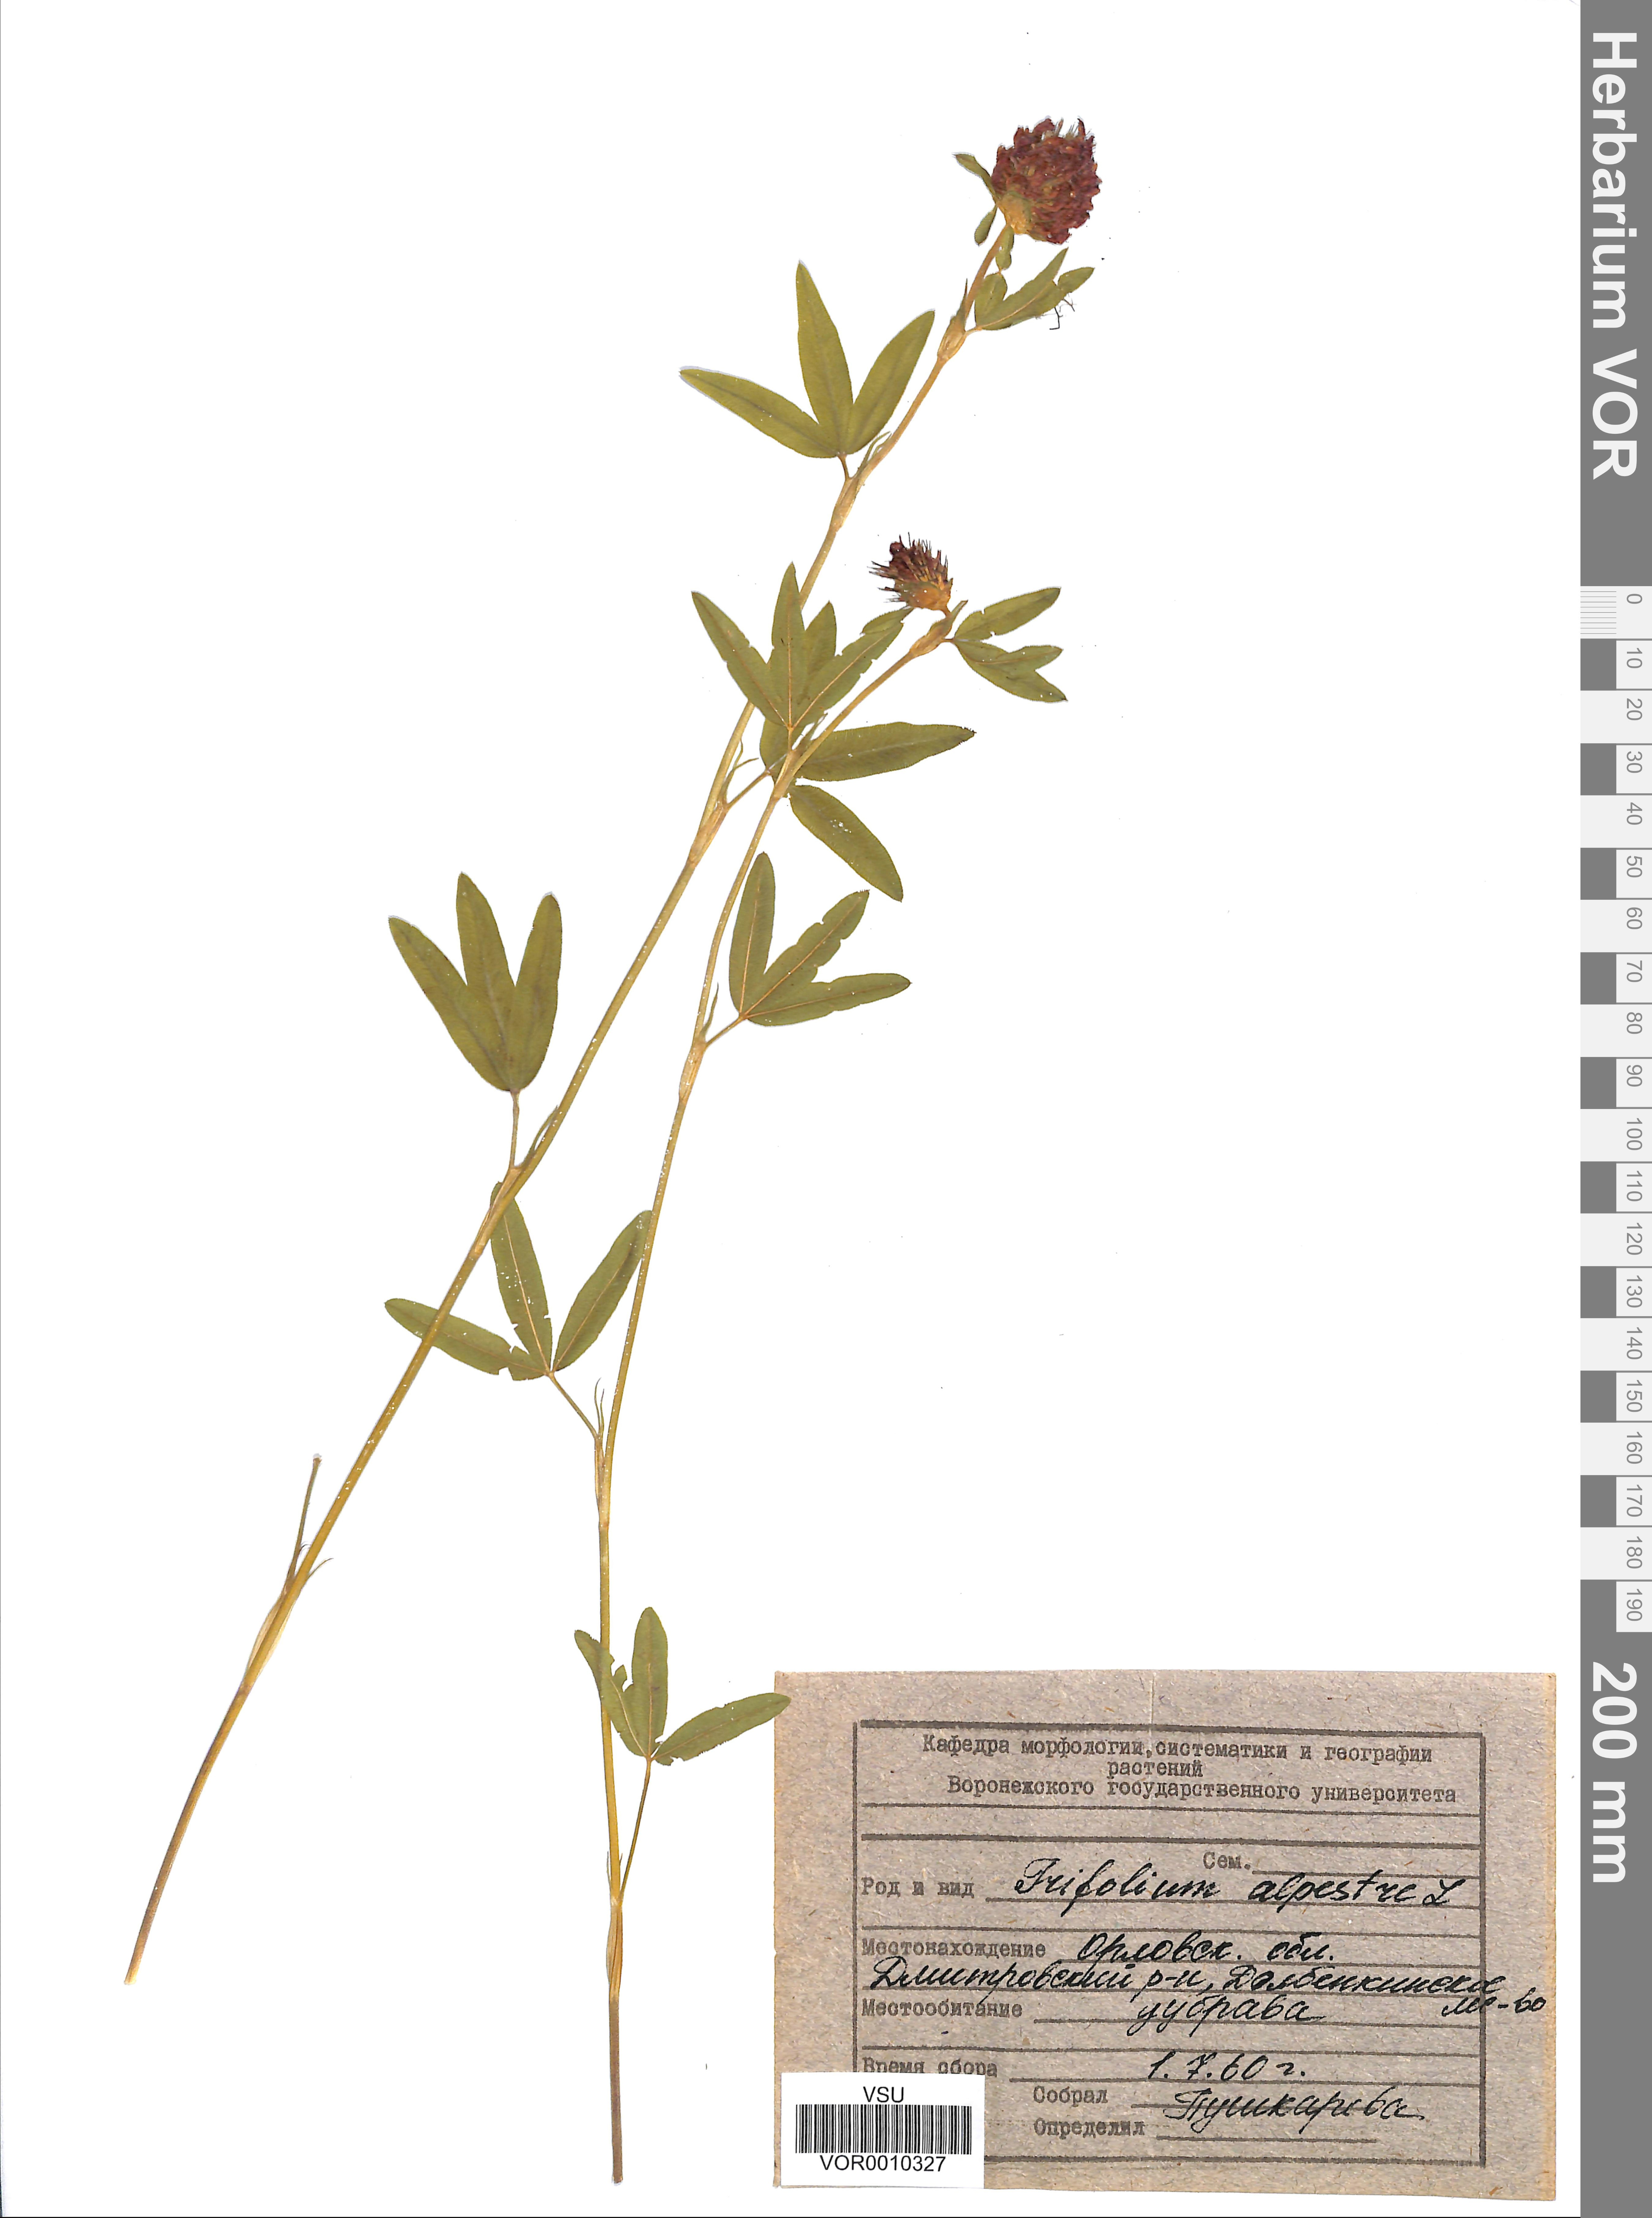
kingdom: Plantae
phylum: Tracheophyta
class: Magnoliopsida
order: Fabales
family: Fabaceae
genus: Trifolium
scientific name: Trifolium alpestre
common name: Owl-head clover
